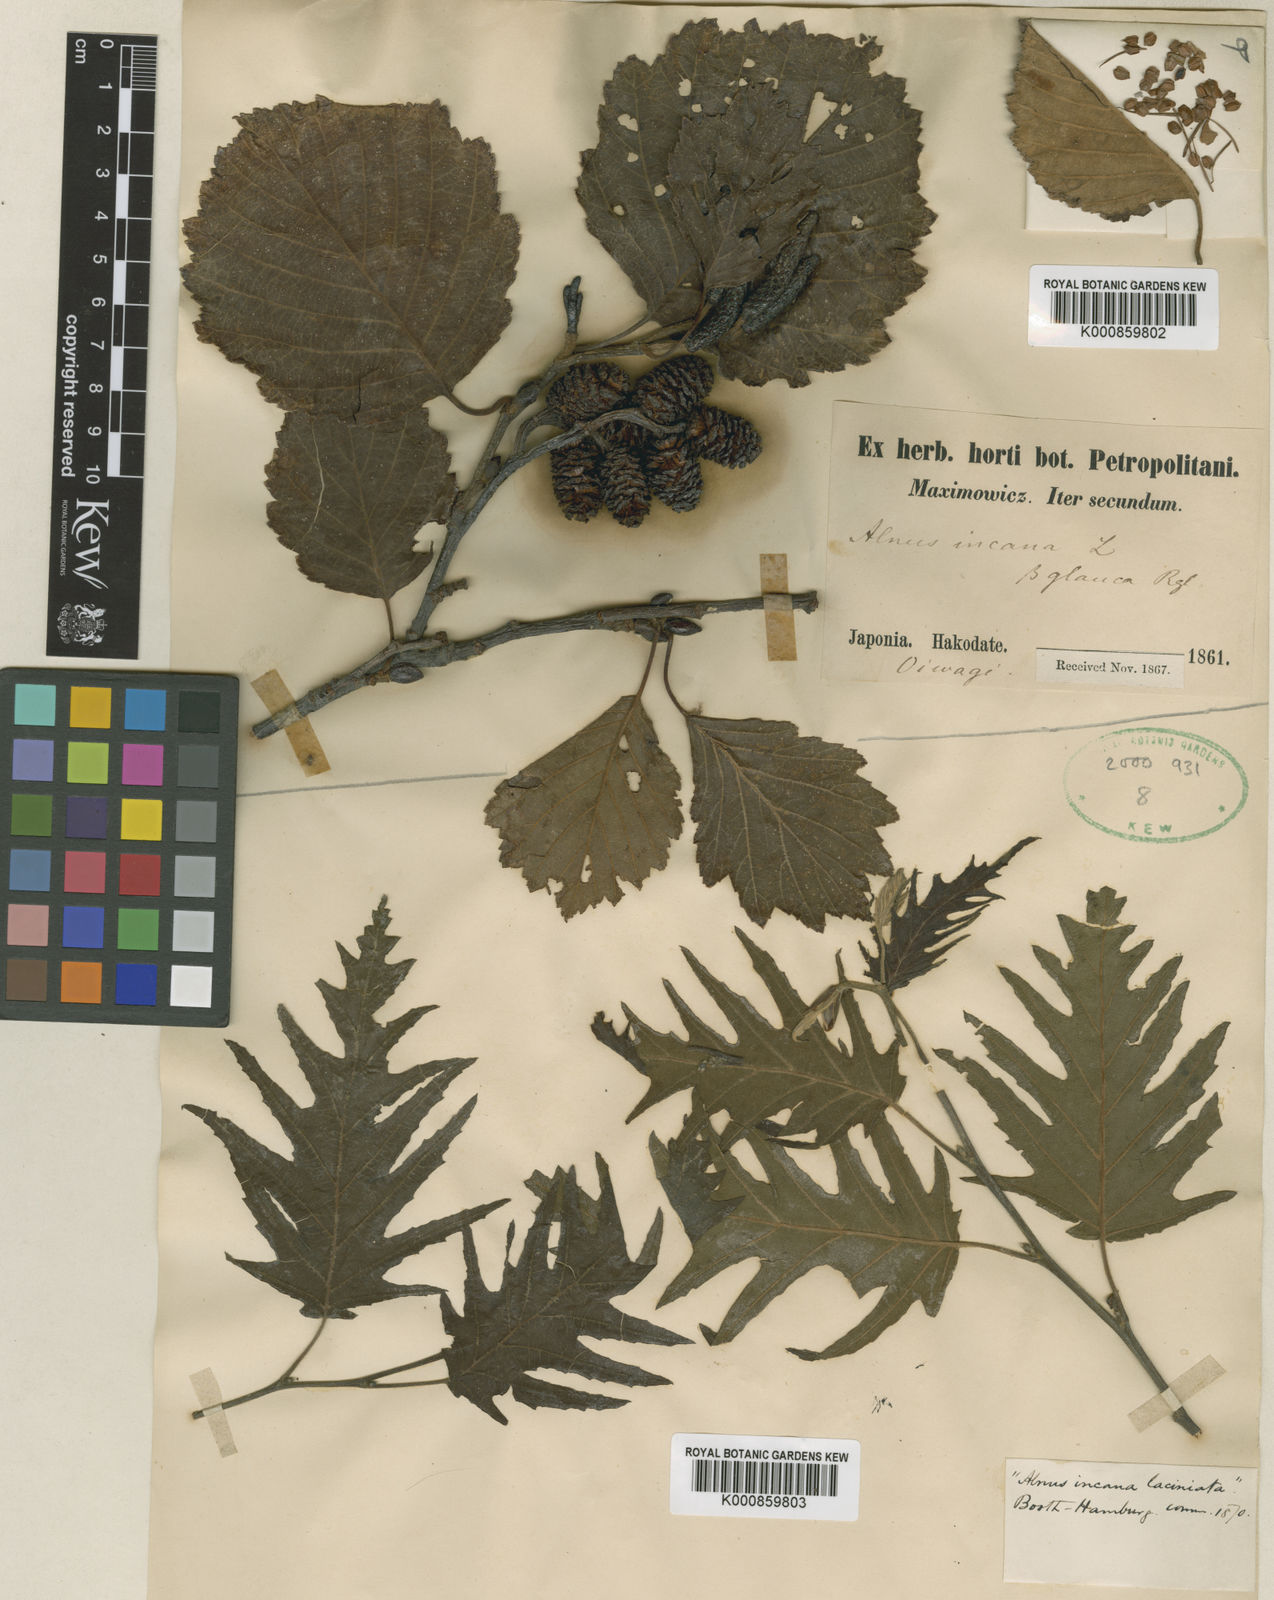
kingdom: Plantae
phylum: Tracheophyta
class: Magnoliopsida
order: Fagales
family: Betulaceae
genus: Alnus
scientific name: Alnus hirsuta
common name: Manchurian alder
